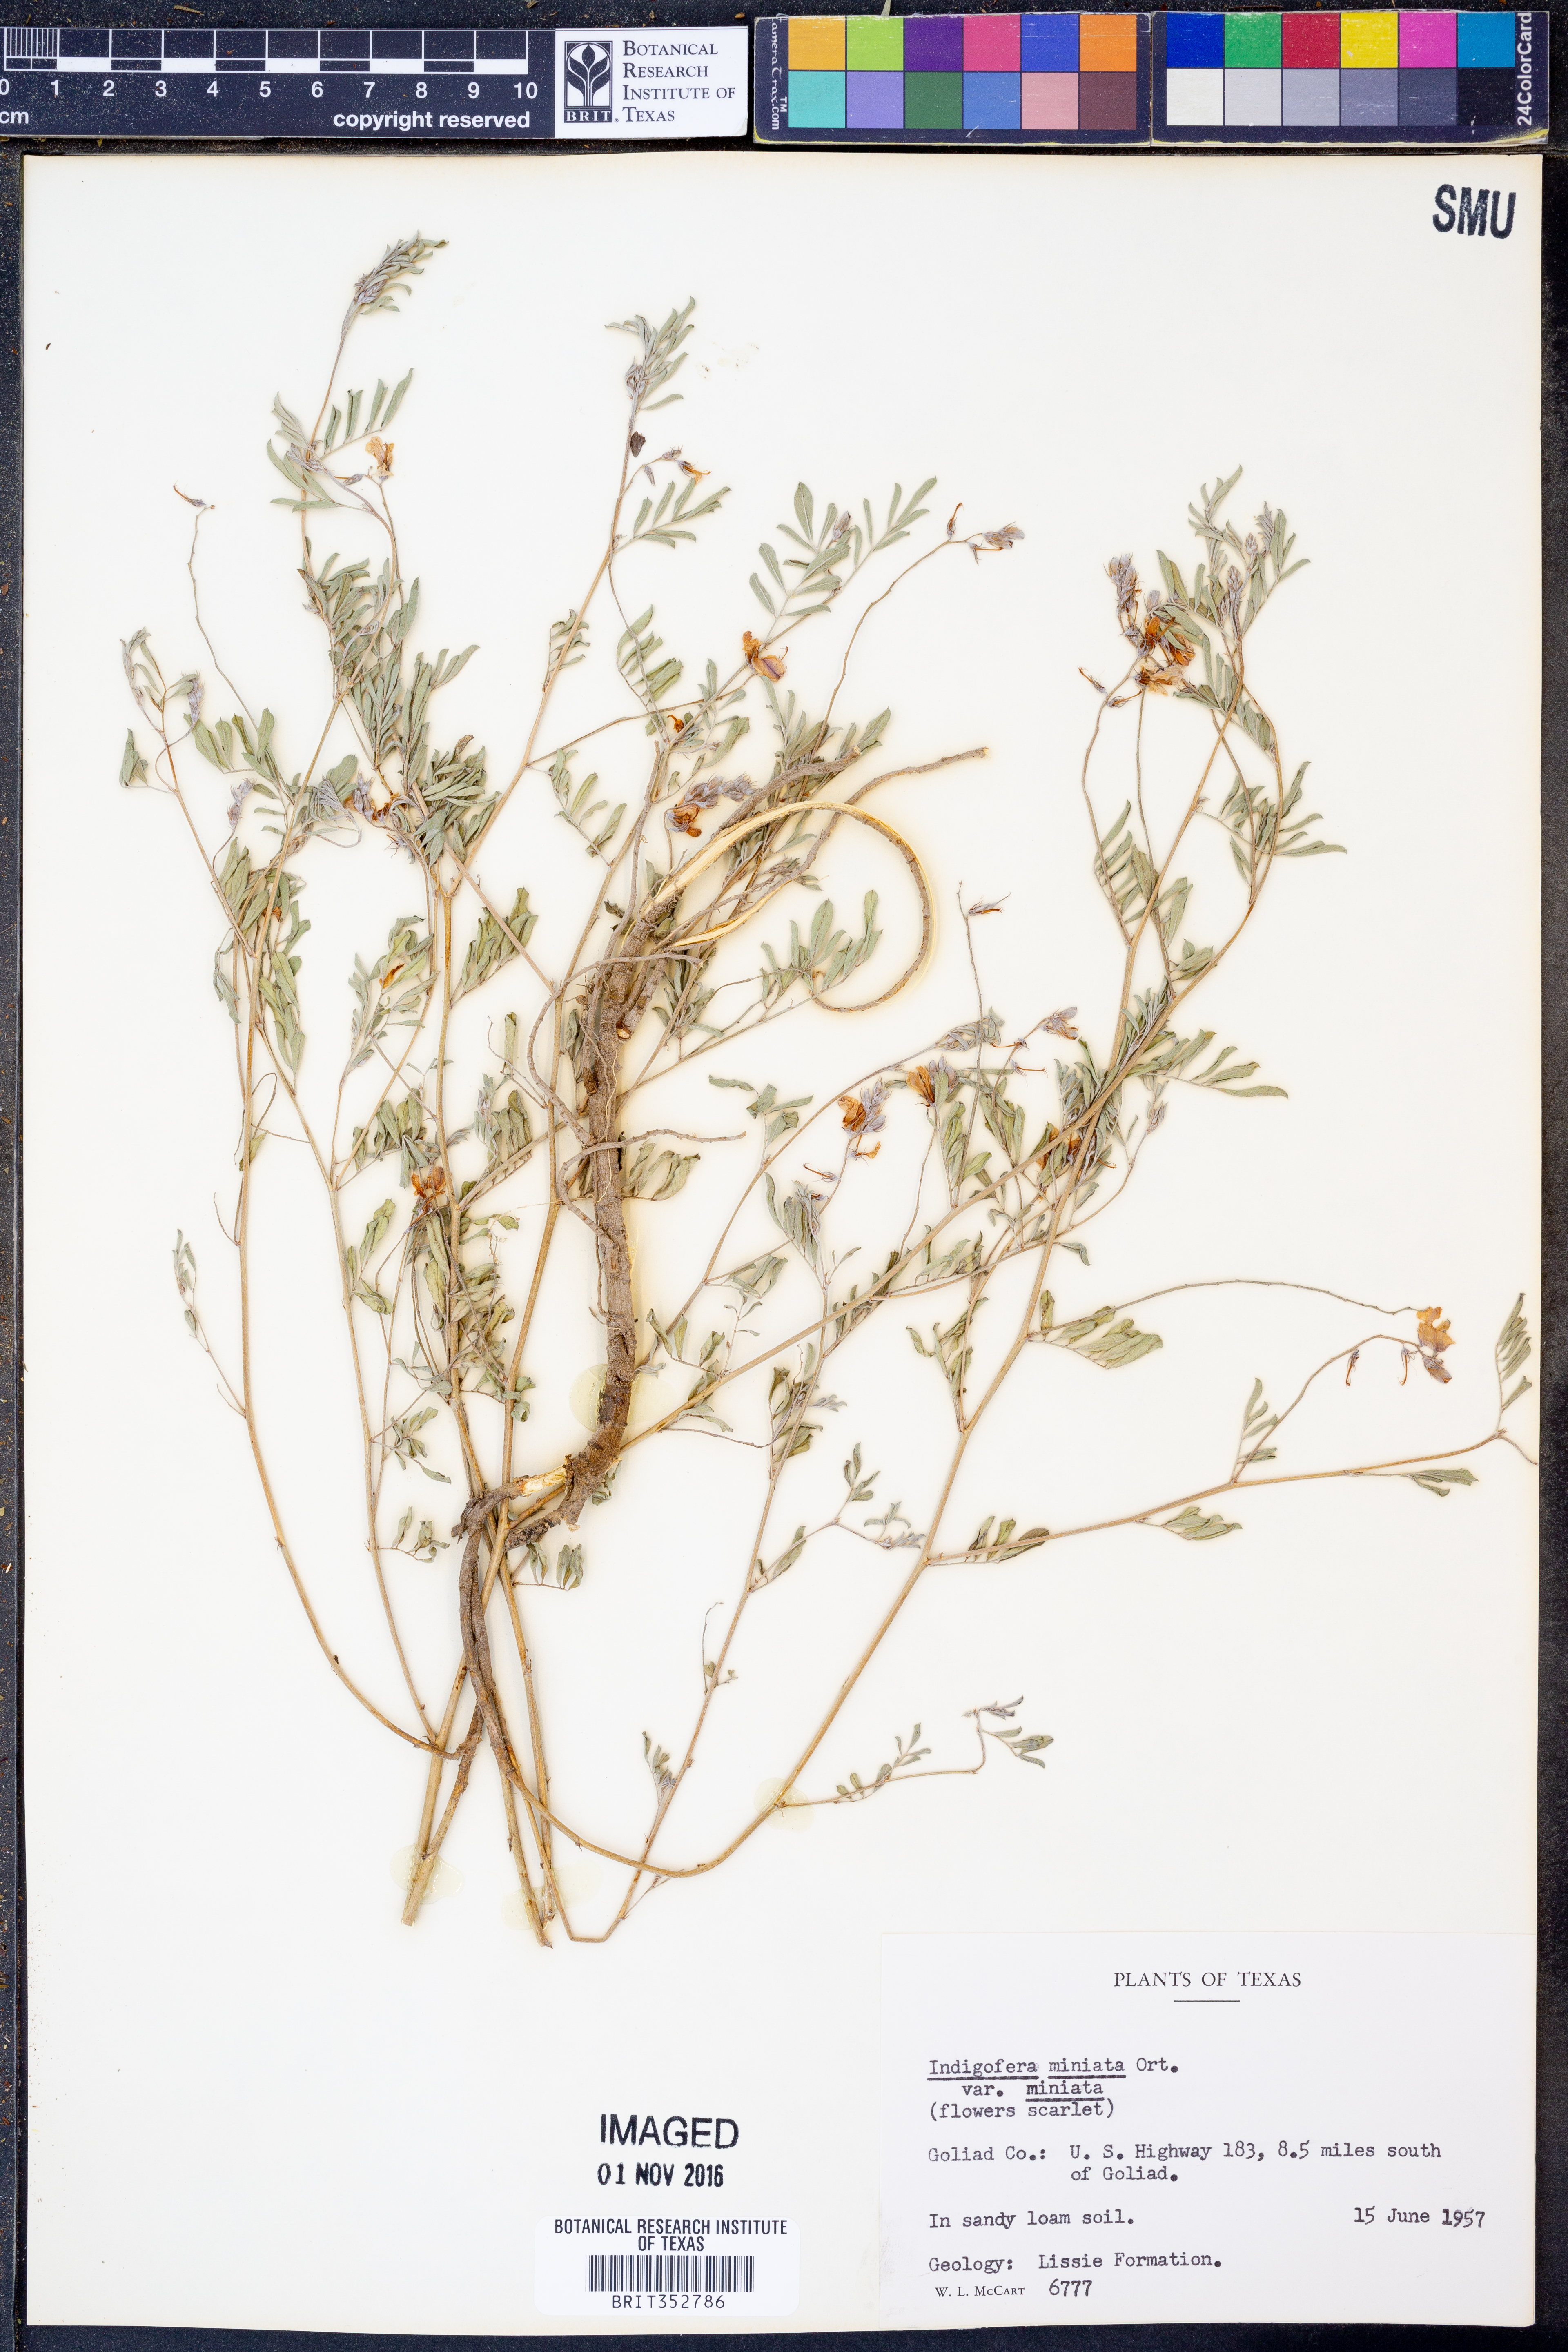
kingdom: Plantae
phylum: Tracheophyta
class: Magnoliopsida
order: Fabales
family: Fabaceae
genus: Indigofera
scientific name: Indigofera miniata
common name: Coast indigo
